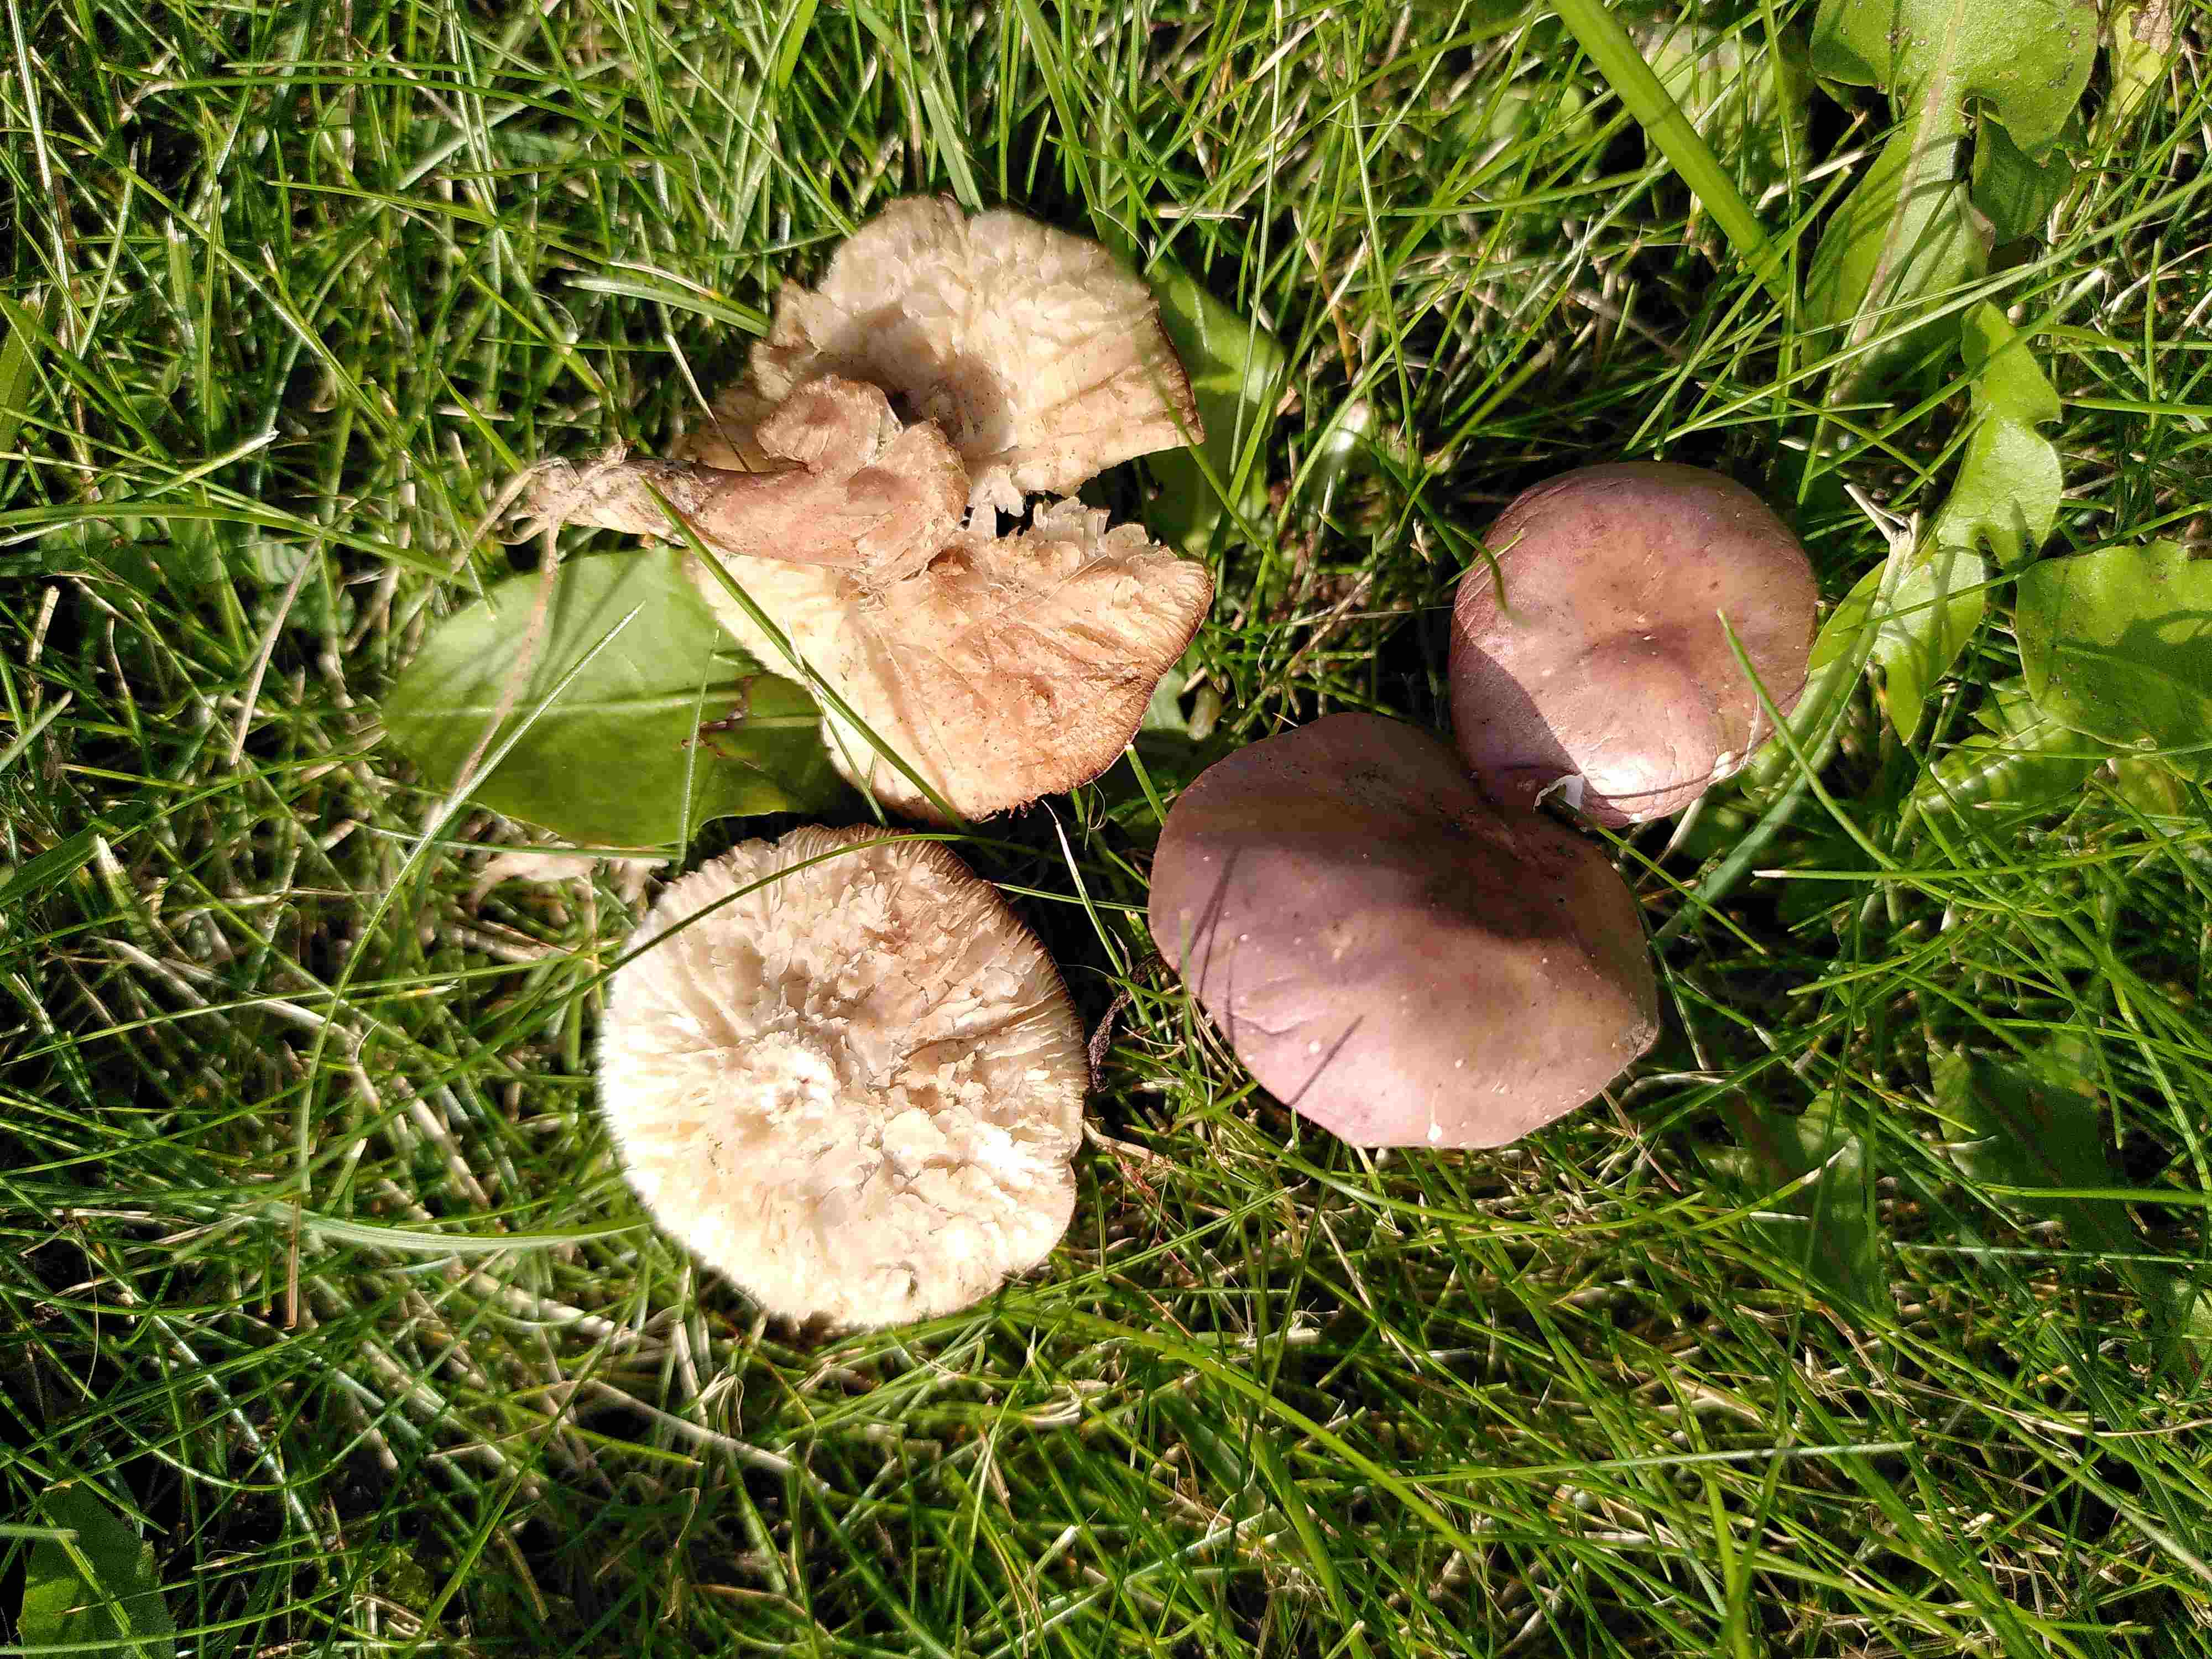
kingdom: Fungi
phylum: Basidiomycota
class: Agaricomycetes
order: Agaricales
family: Lyophyllaceae
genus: Calocybe
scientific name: Calocybe carnea
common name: rosa fagerhat
